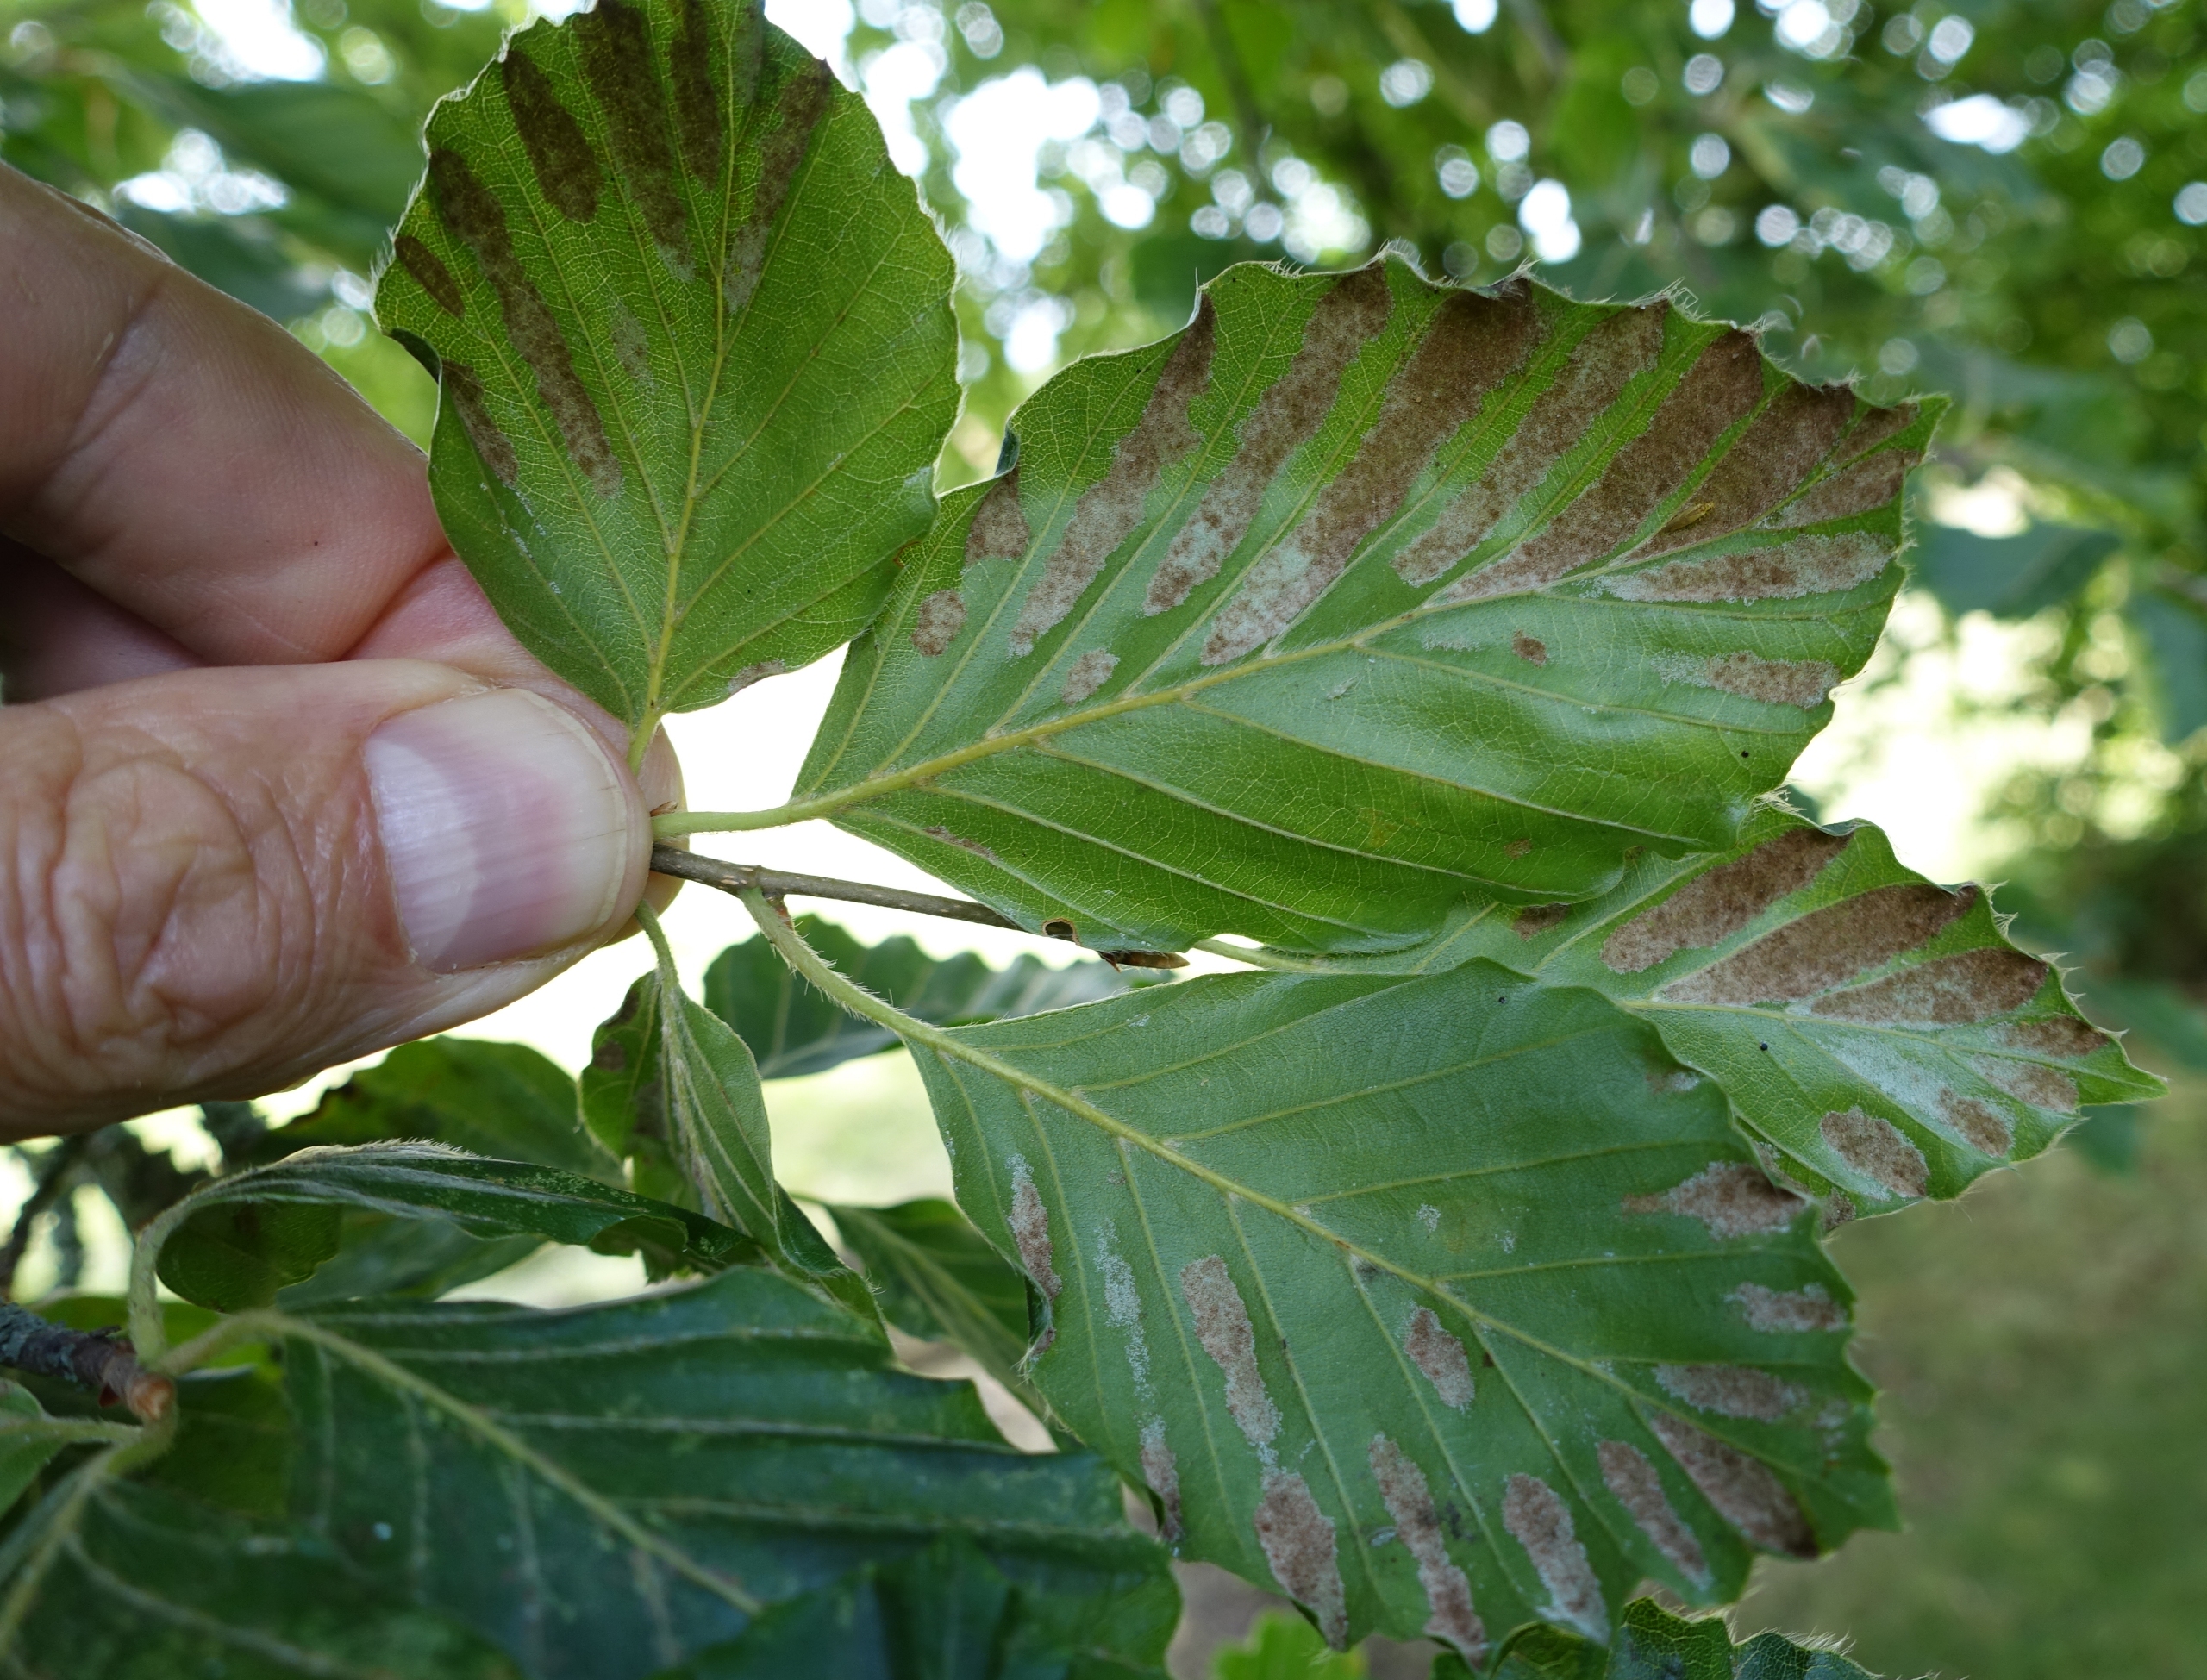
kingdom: Animalia
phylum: Arthropoda
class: Arachnida
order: Trombidiformes
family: Eriophyidae
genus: Aceria
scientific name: Aceria nervisequa
